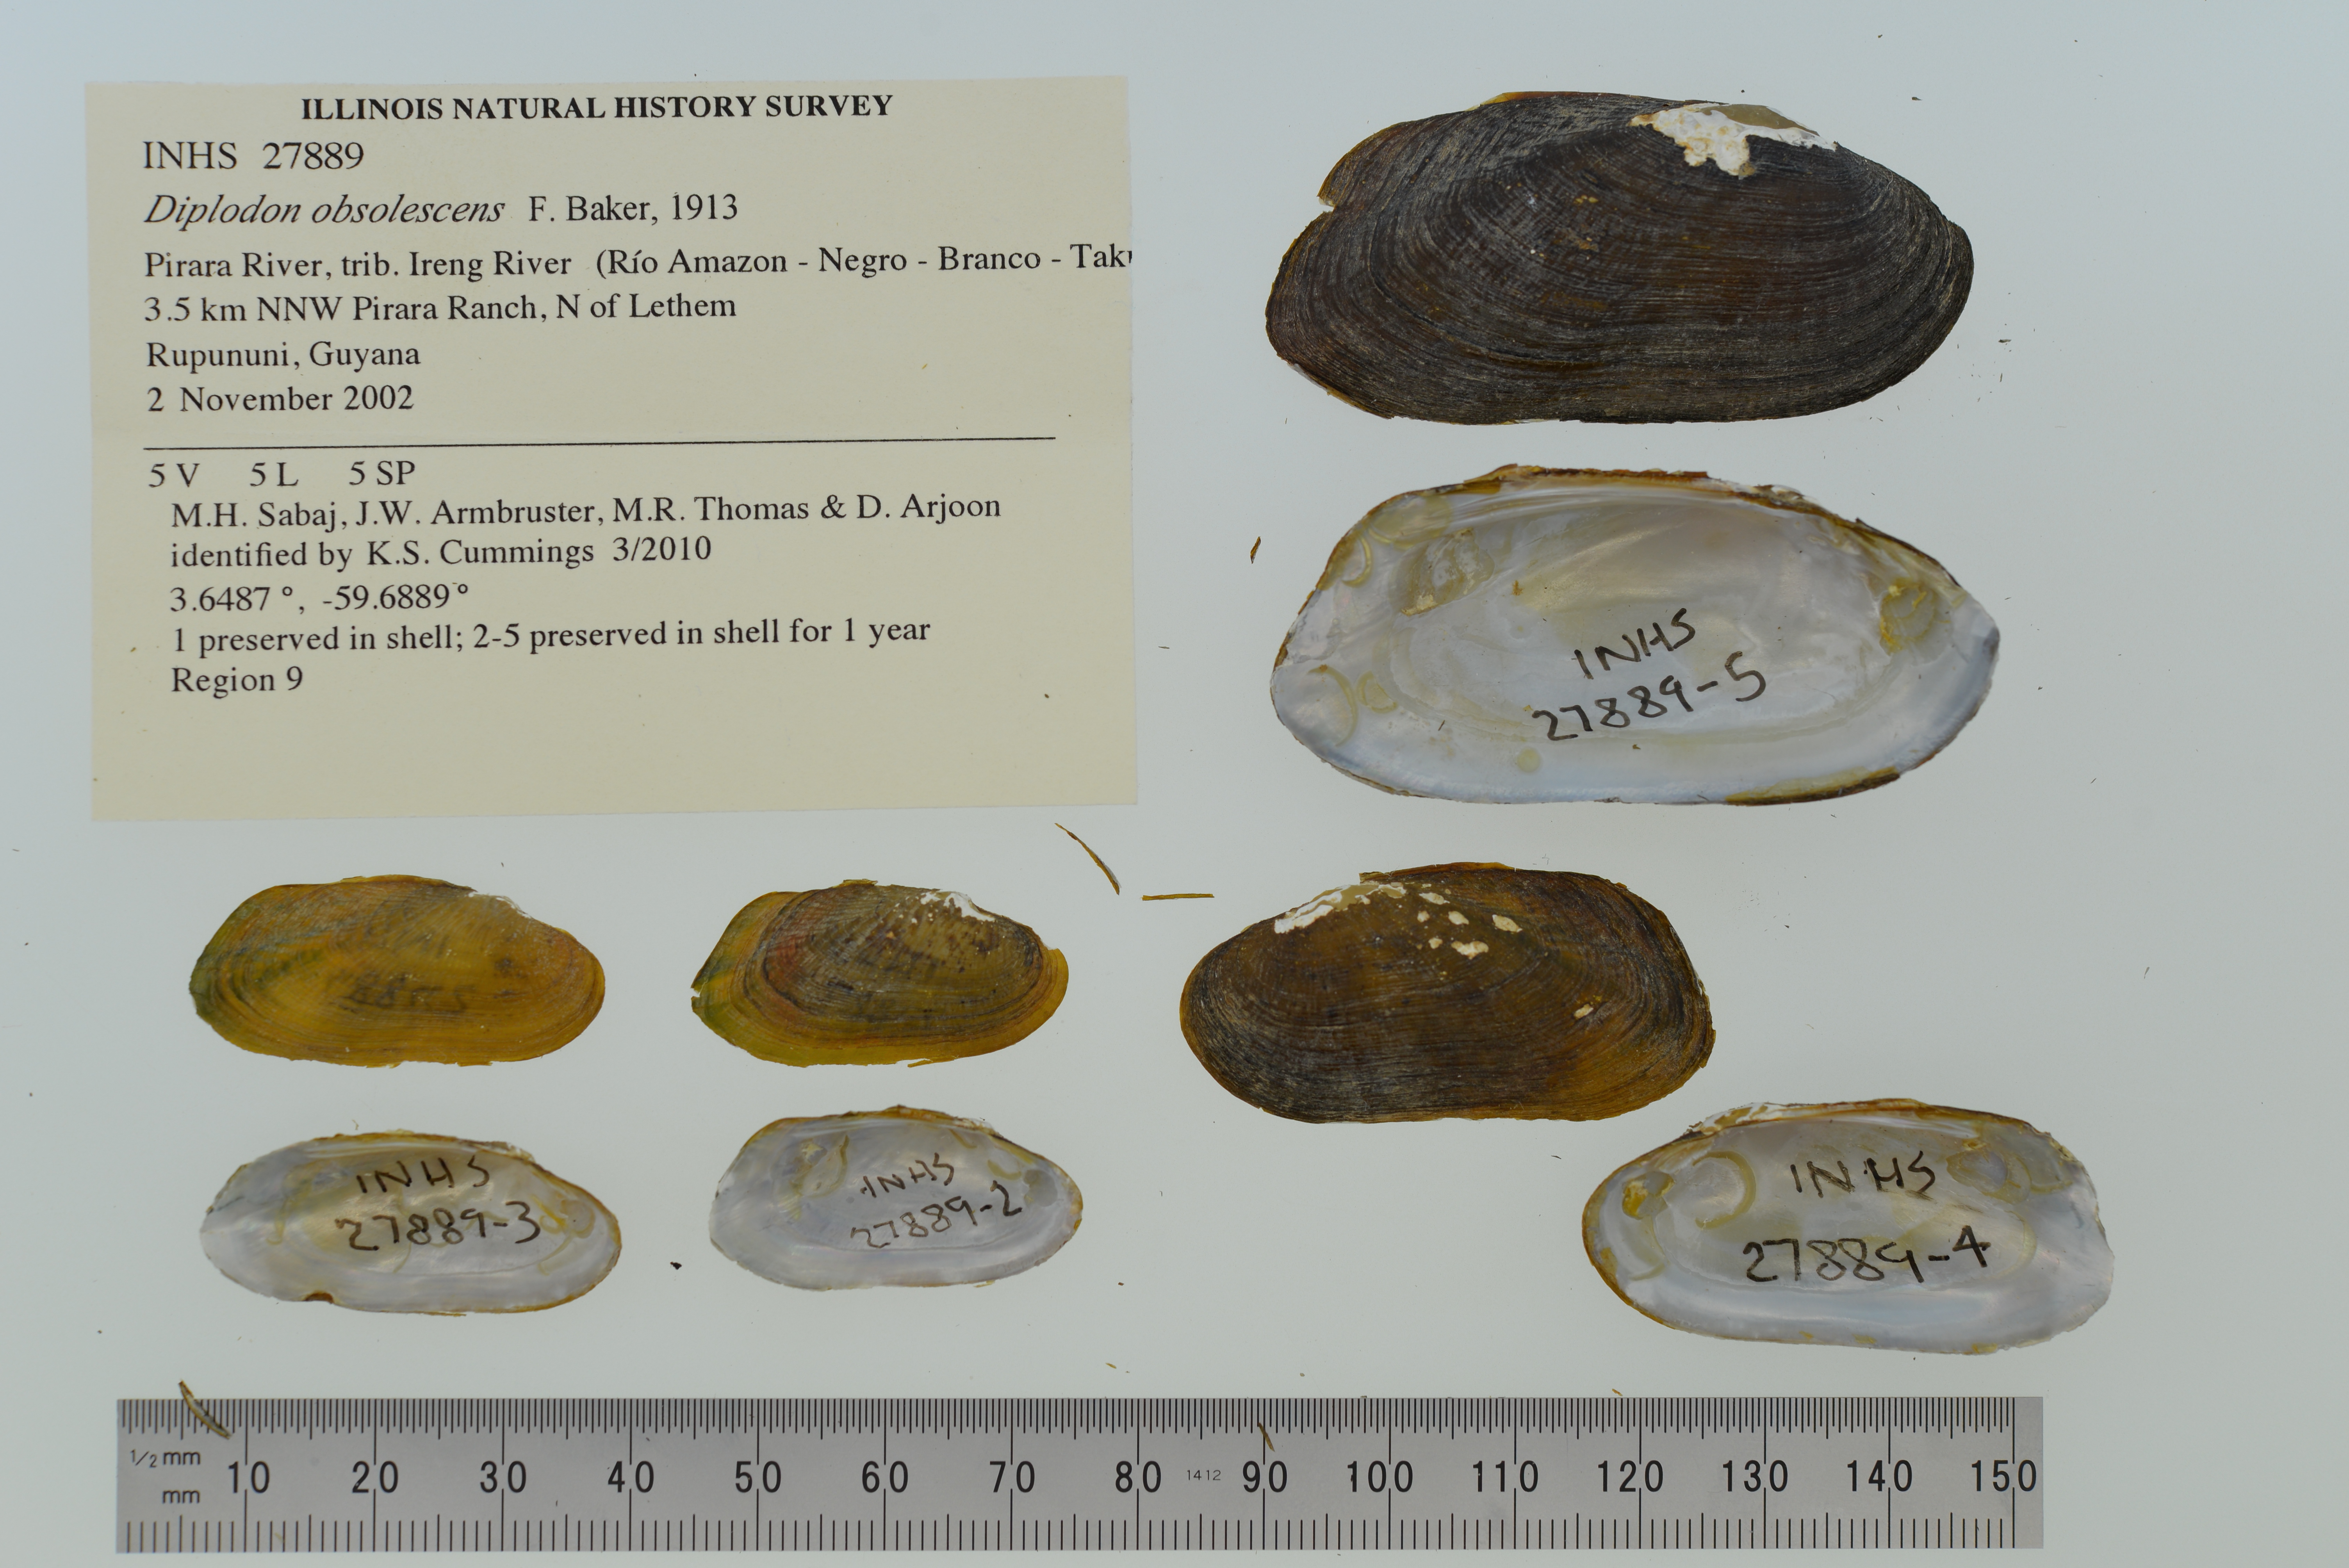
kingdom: Animalia
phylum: Mollusca
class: Bivalvia
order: Unionida
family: Hyriidae
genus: Diplodon
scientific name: Diplodon obsolescens
